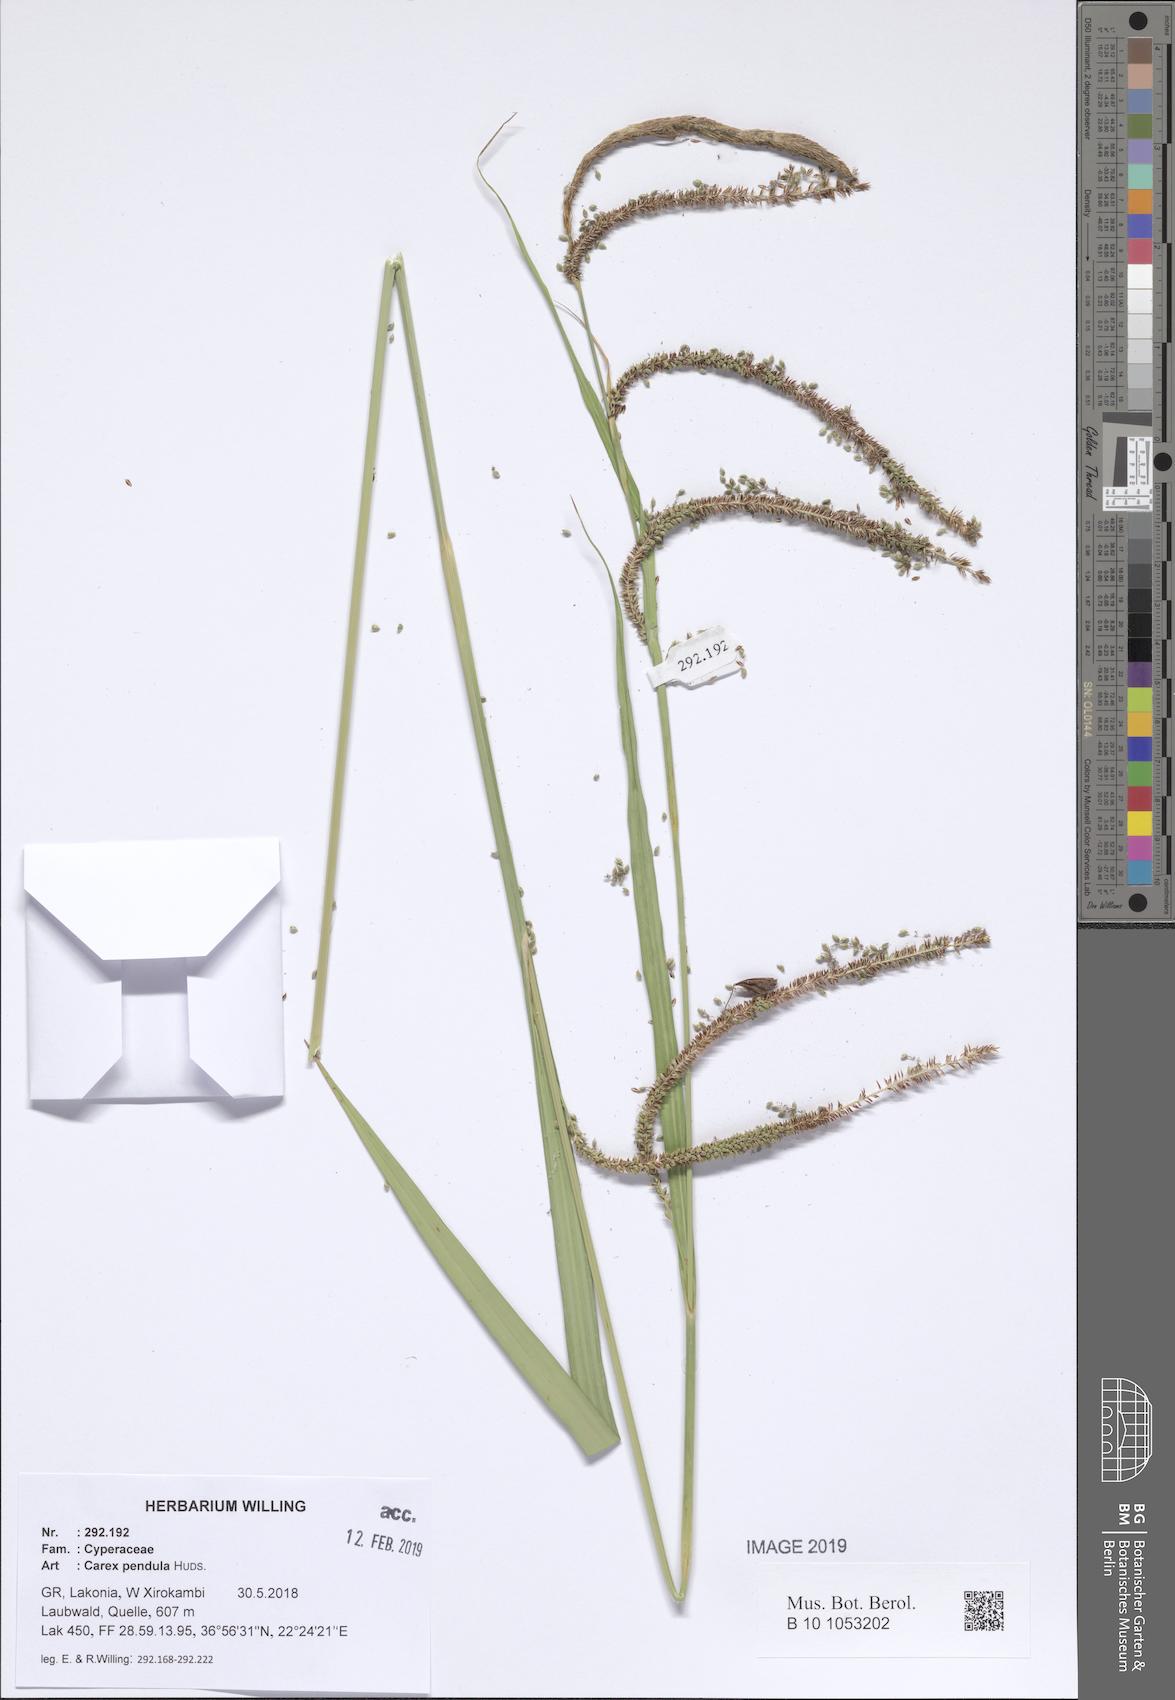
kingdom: Plantae
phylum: Tracheophyta
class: Liliopsida
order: Poales
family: Cyperaceae
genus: Carex
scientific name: Carex pendula
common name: Pendulous sedge
